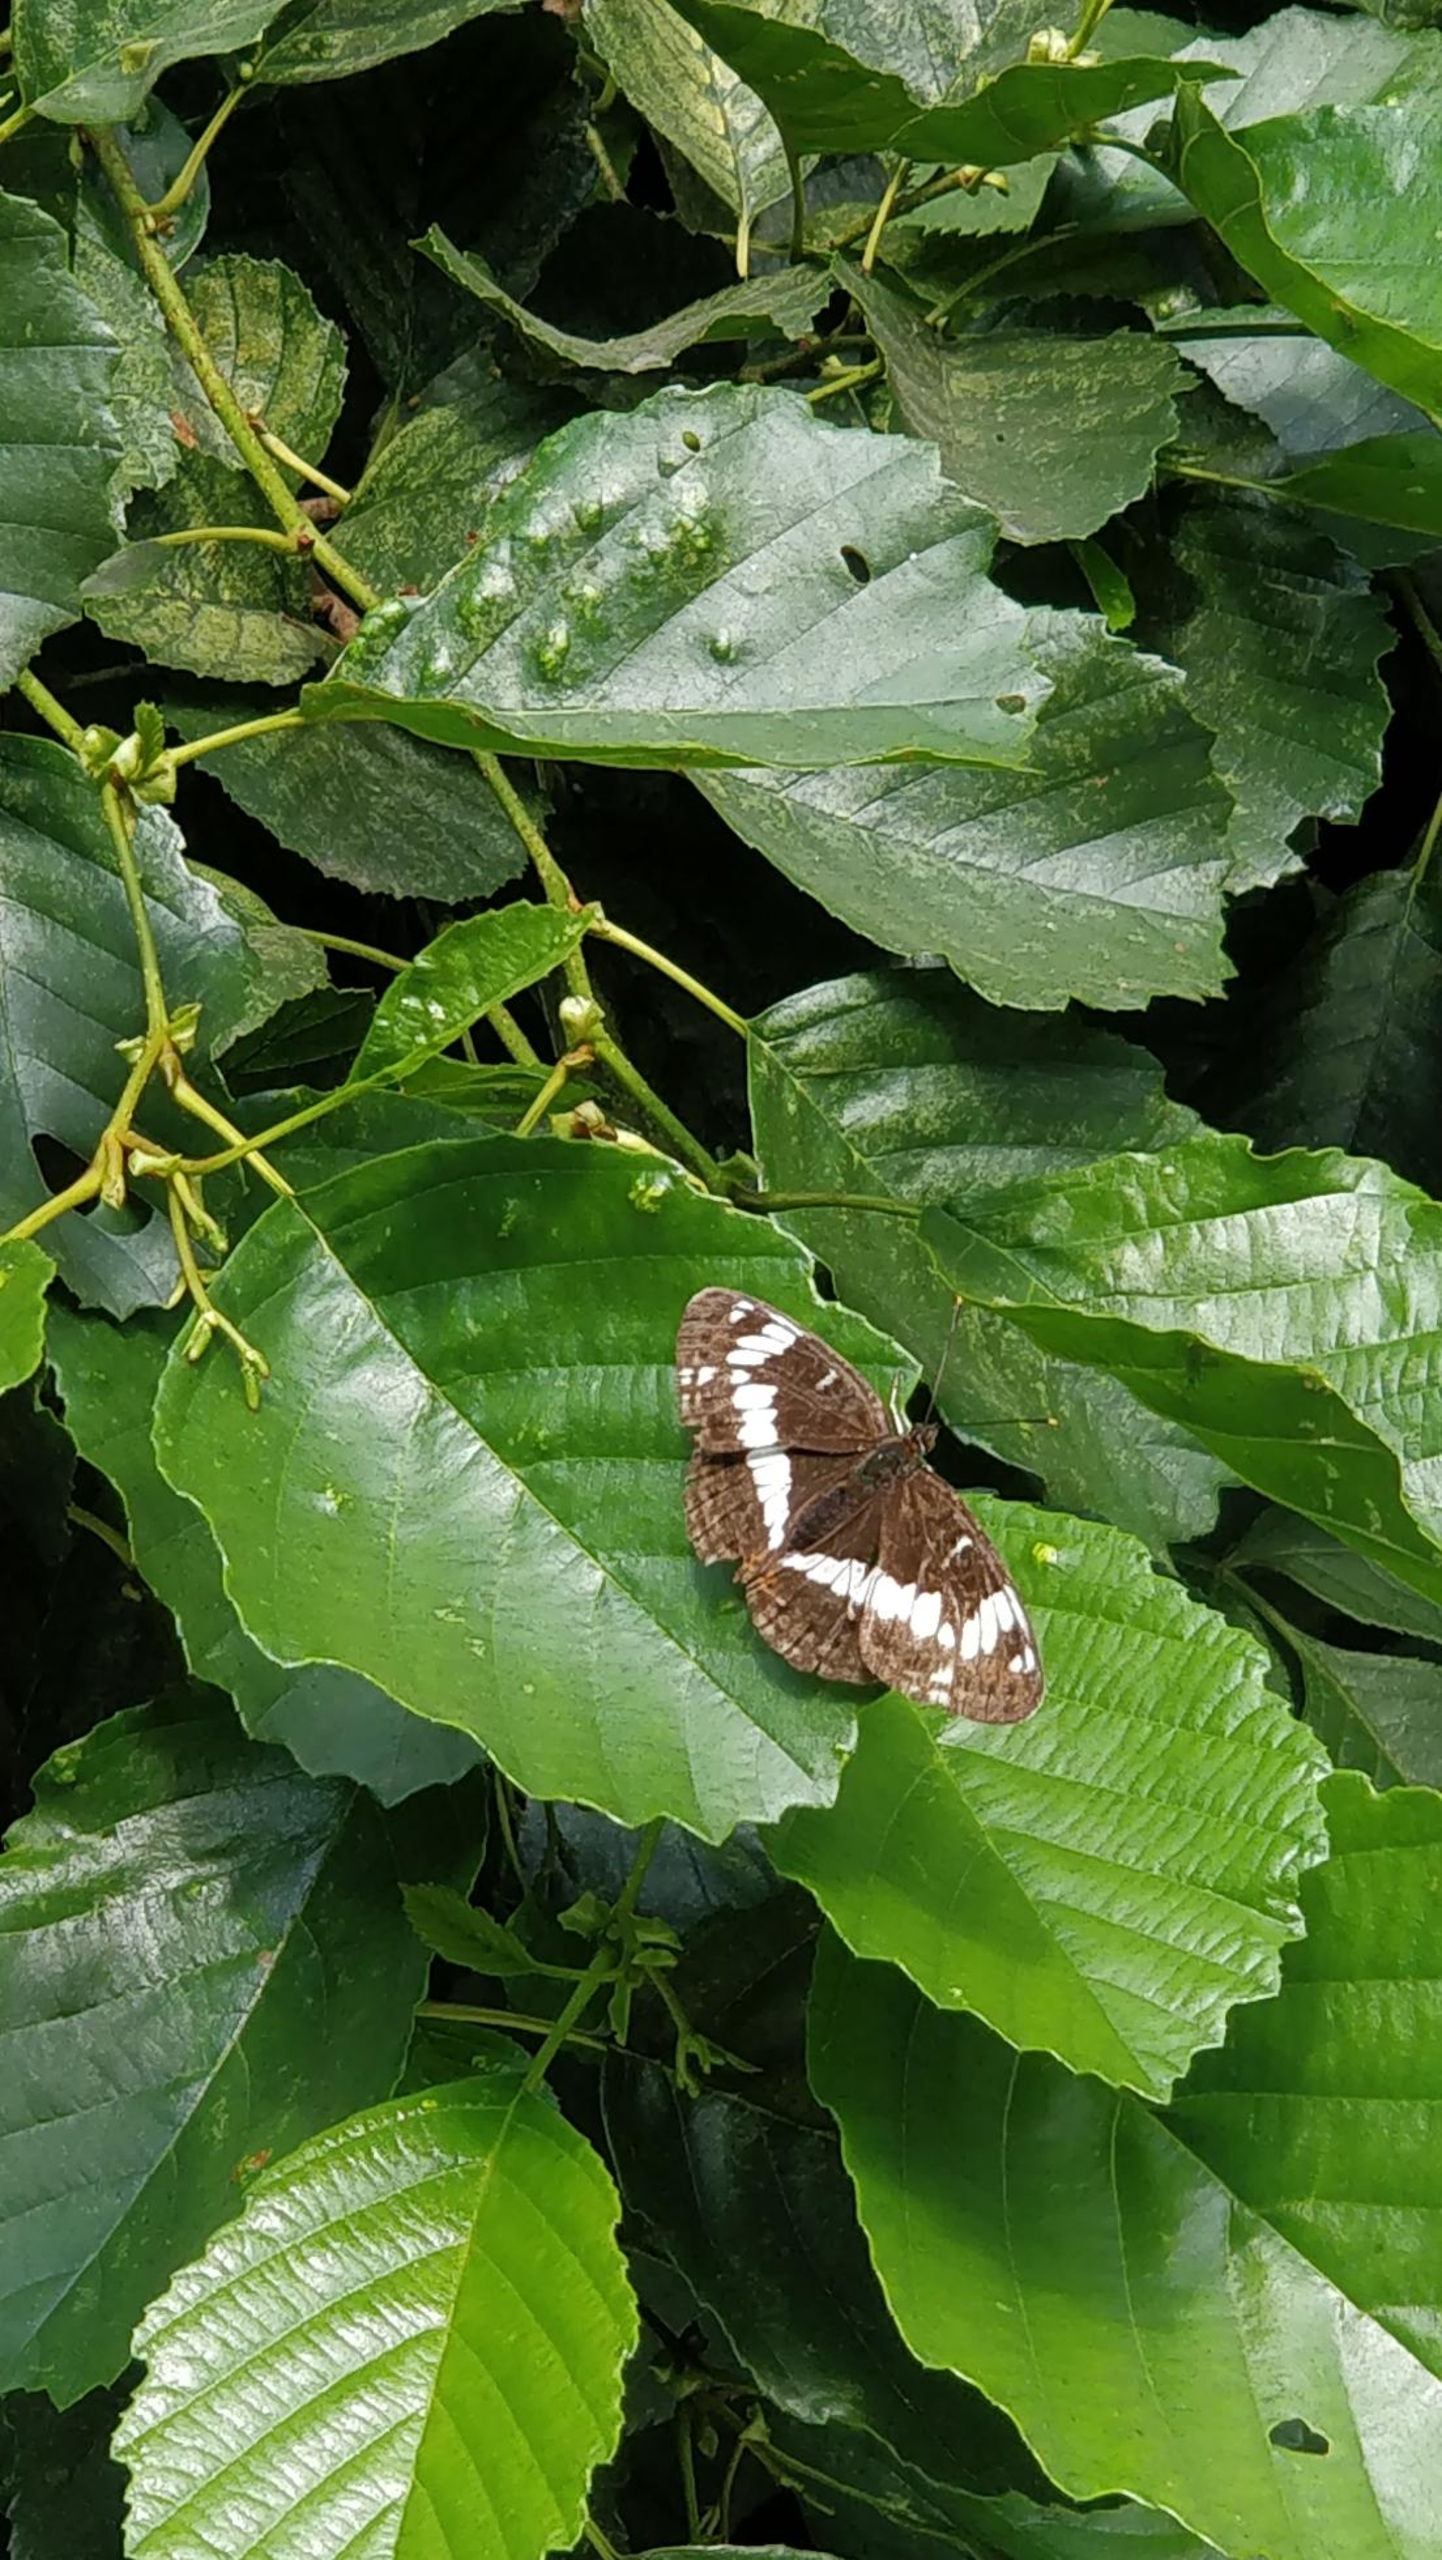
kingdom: Animalia
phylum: Arthropoda
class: Insecta
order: Lepidoptera
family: Nymphalidae
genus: Ladoga
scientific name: Ladoga camilla
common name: Hvid admiral
